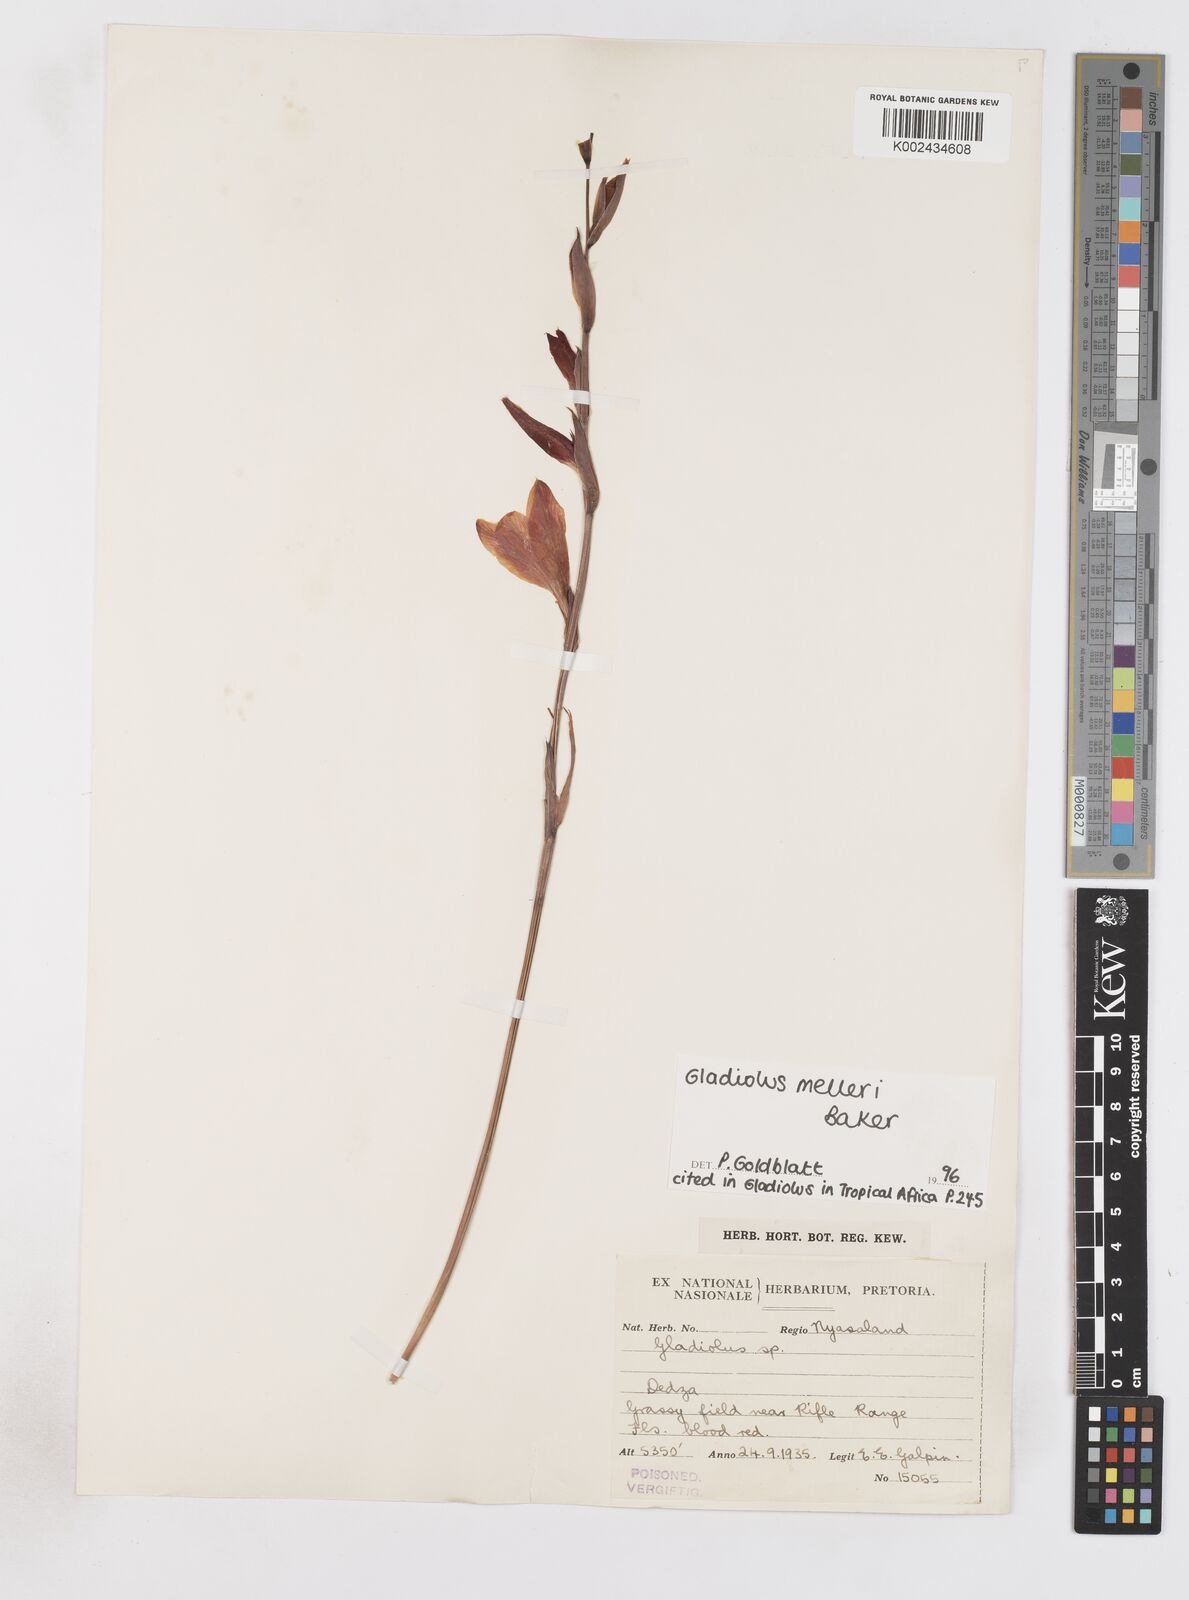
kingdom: Plantae
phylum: Tracheophyta
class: Liliopsida
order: Asparagales
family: Iridaceae
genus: Gladiolus
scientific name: Gladiolus melleri
